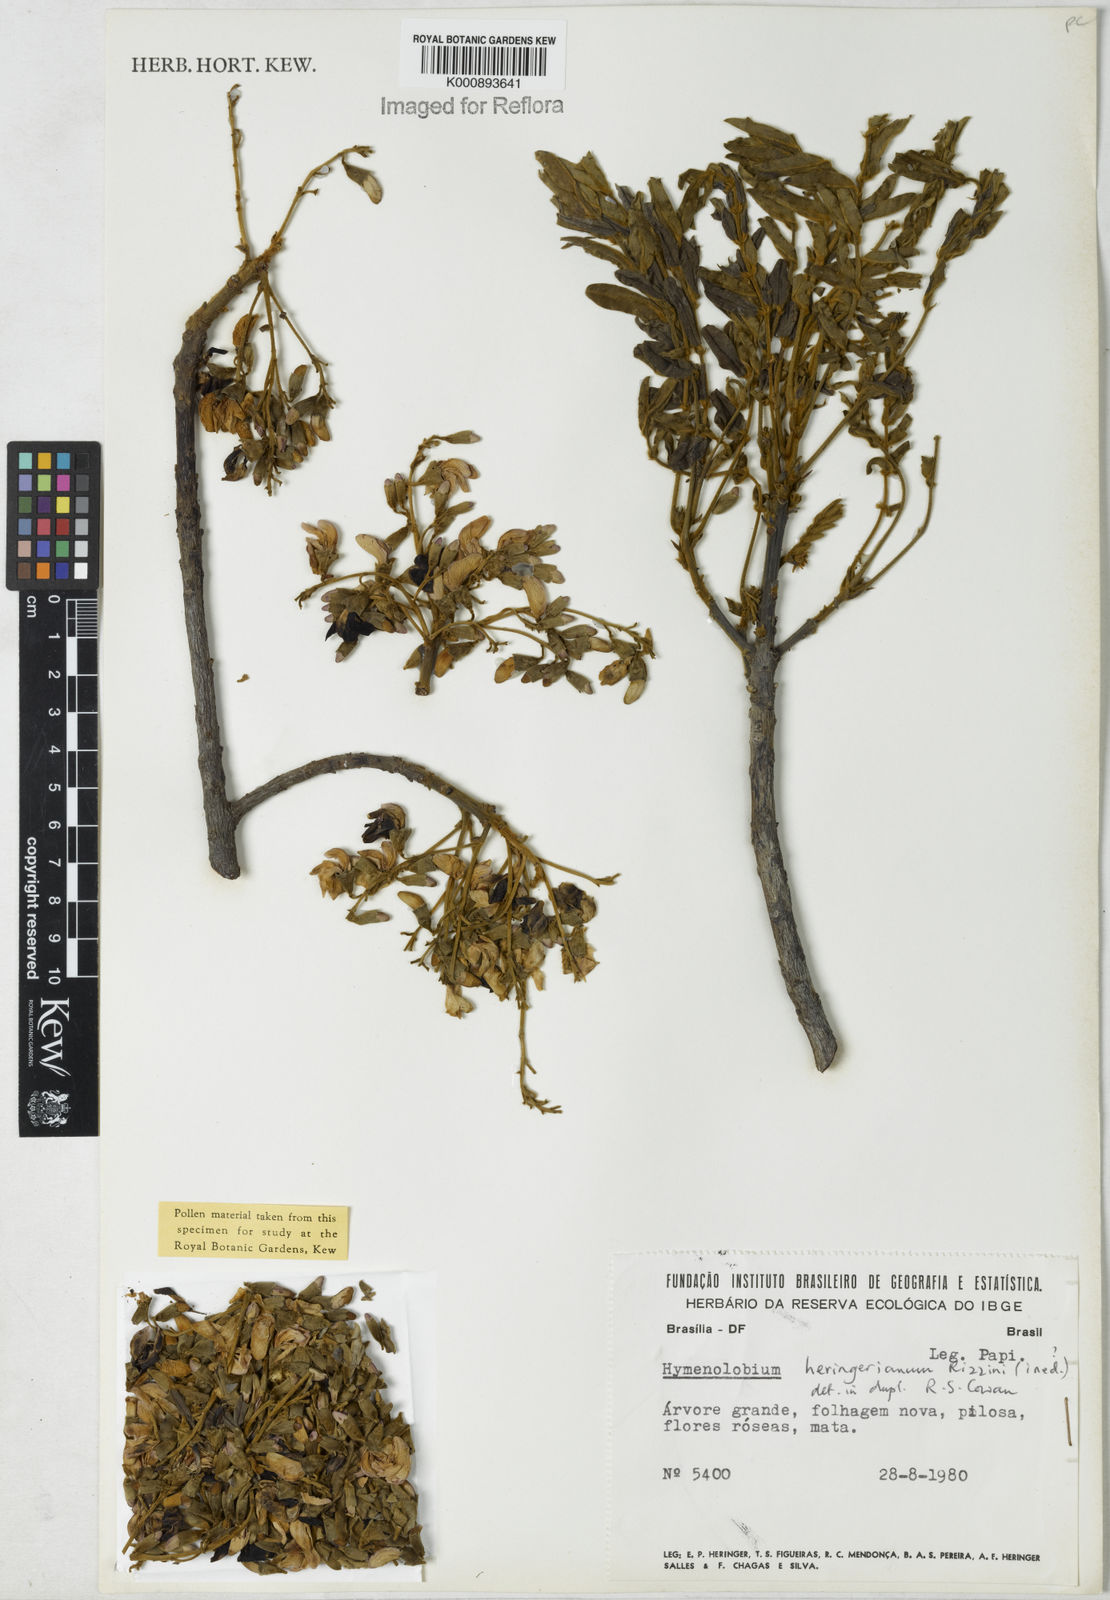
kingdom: Plantae
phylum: Tracheophyta
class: Magnoliopsida
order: Fabales
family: Fabaceae
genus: Hymenolobium
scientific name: Hymenolobium
